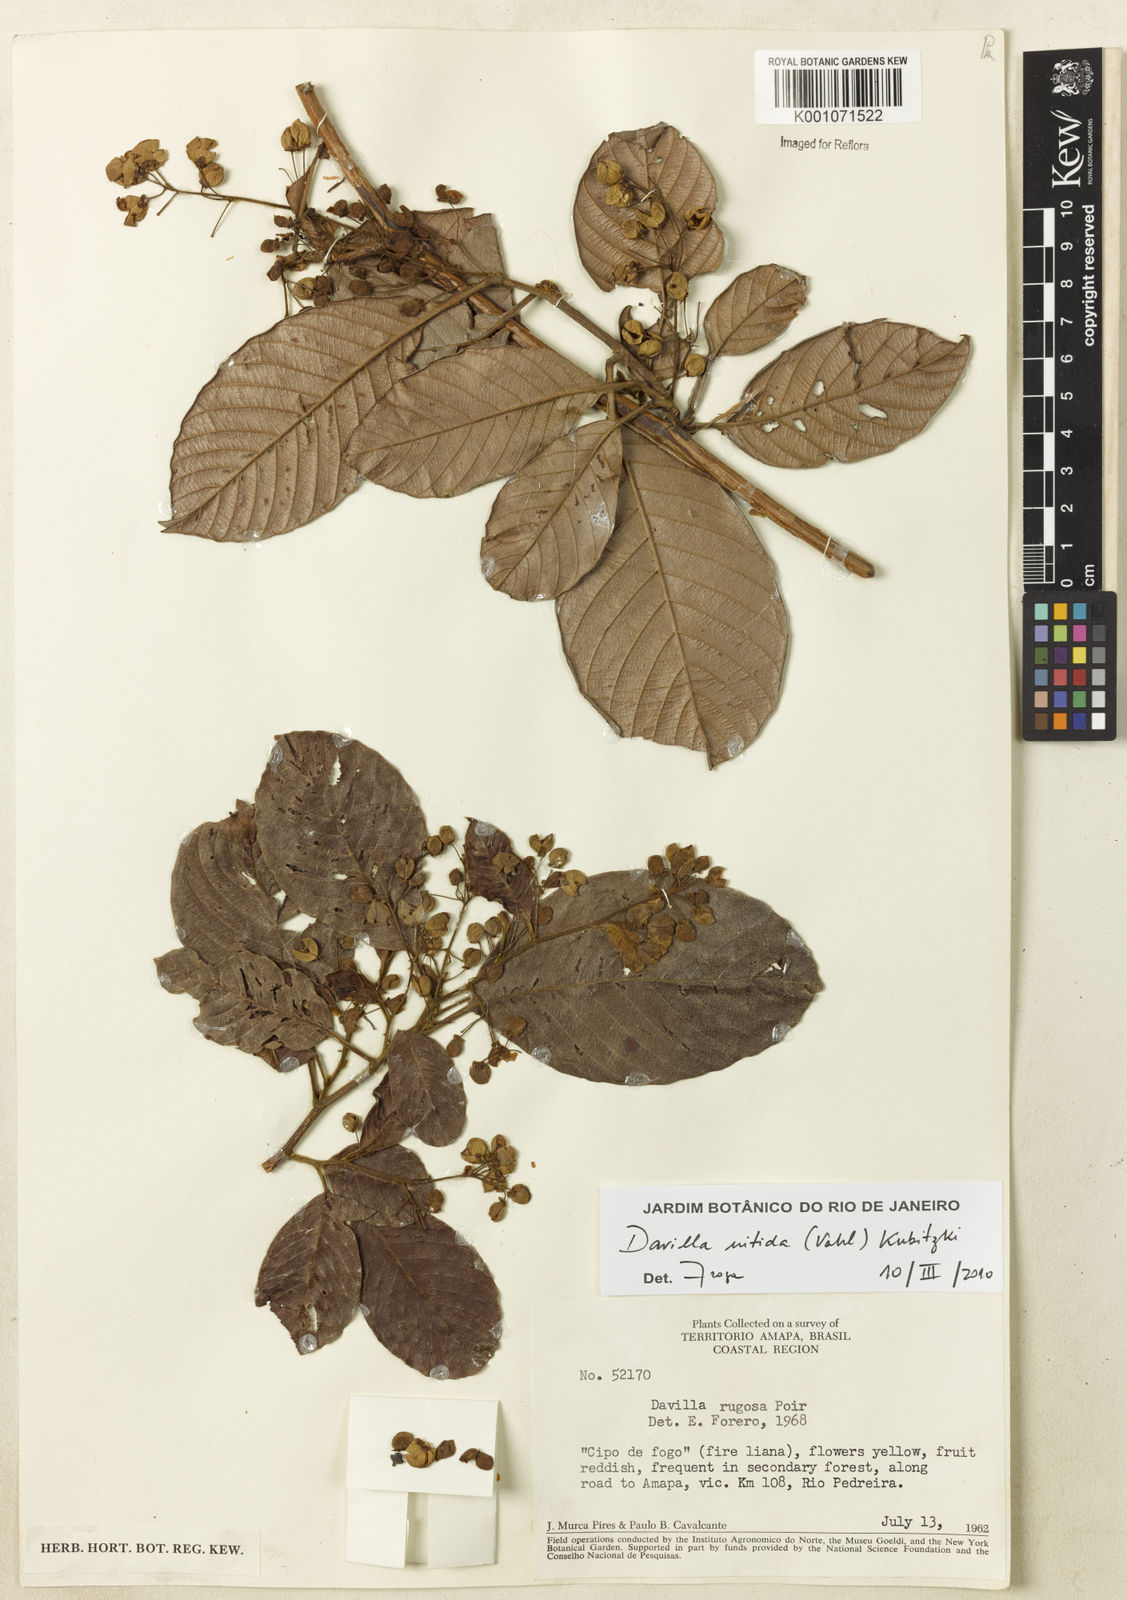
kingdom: Plantae
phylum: Tracheophyta
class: Magnoliopsida
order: Dilleniales
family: Dilleniaceae
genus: Davilla
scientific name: Davilla nitida
